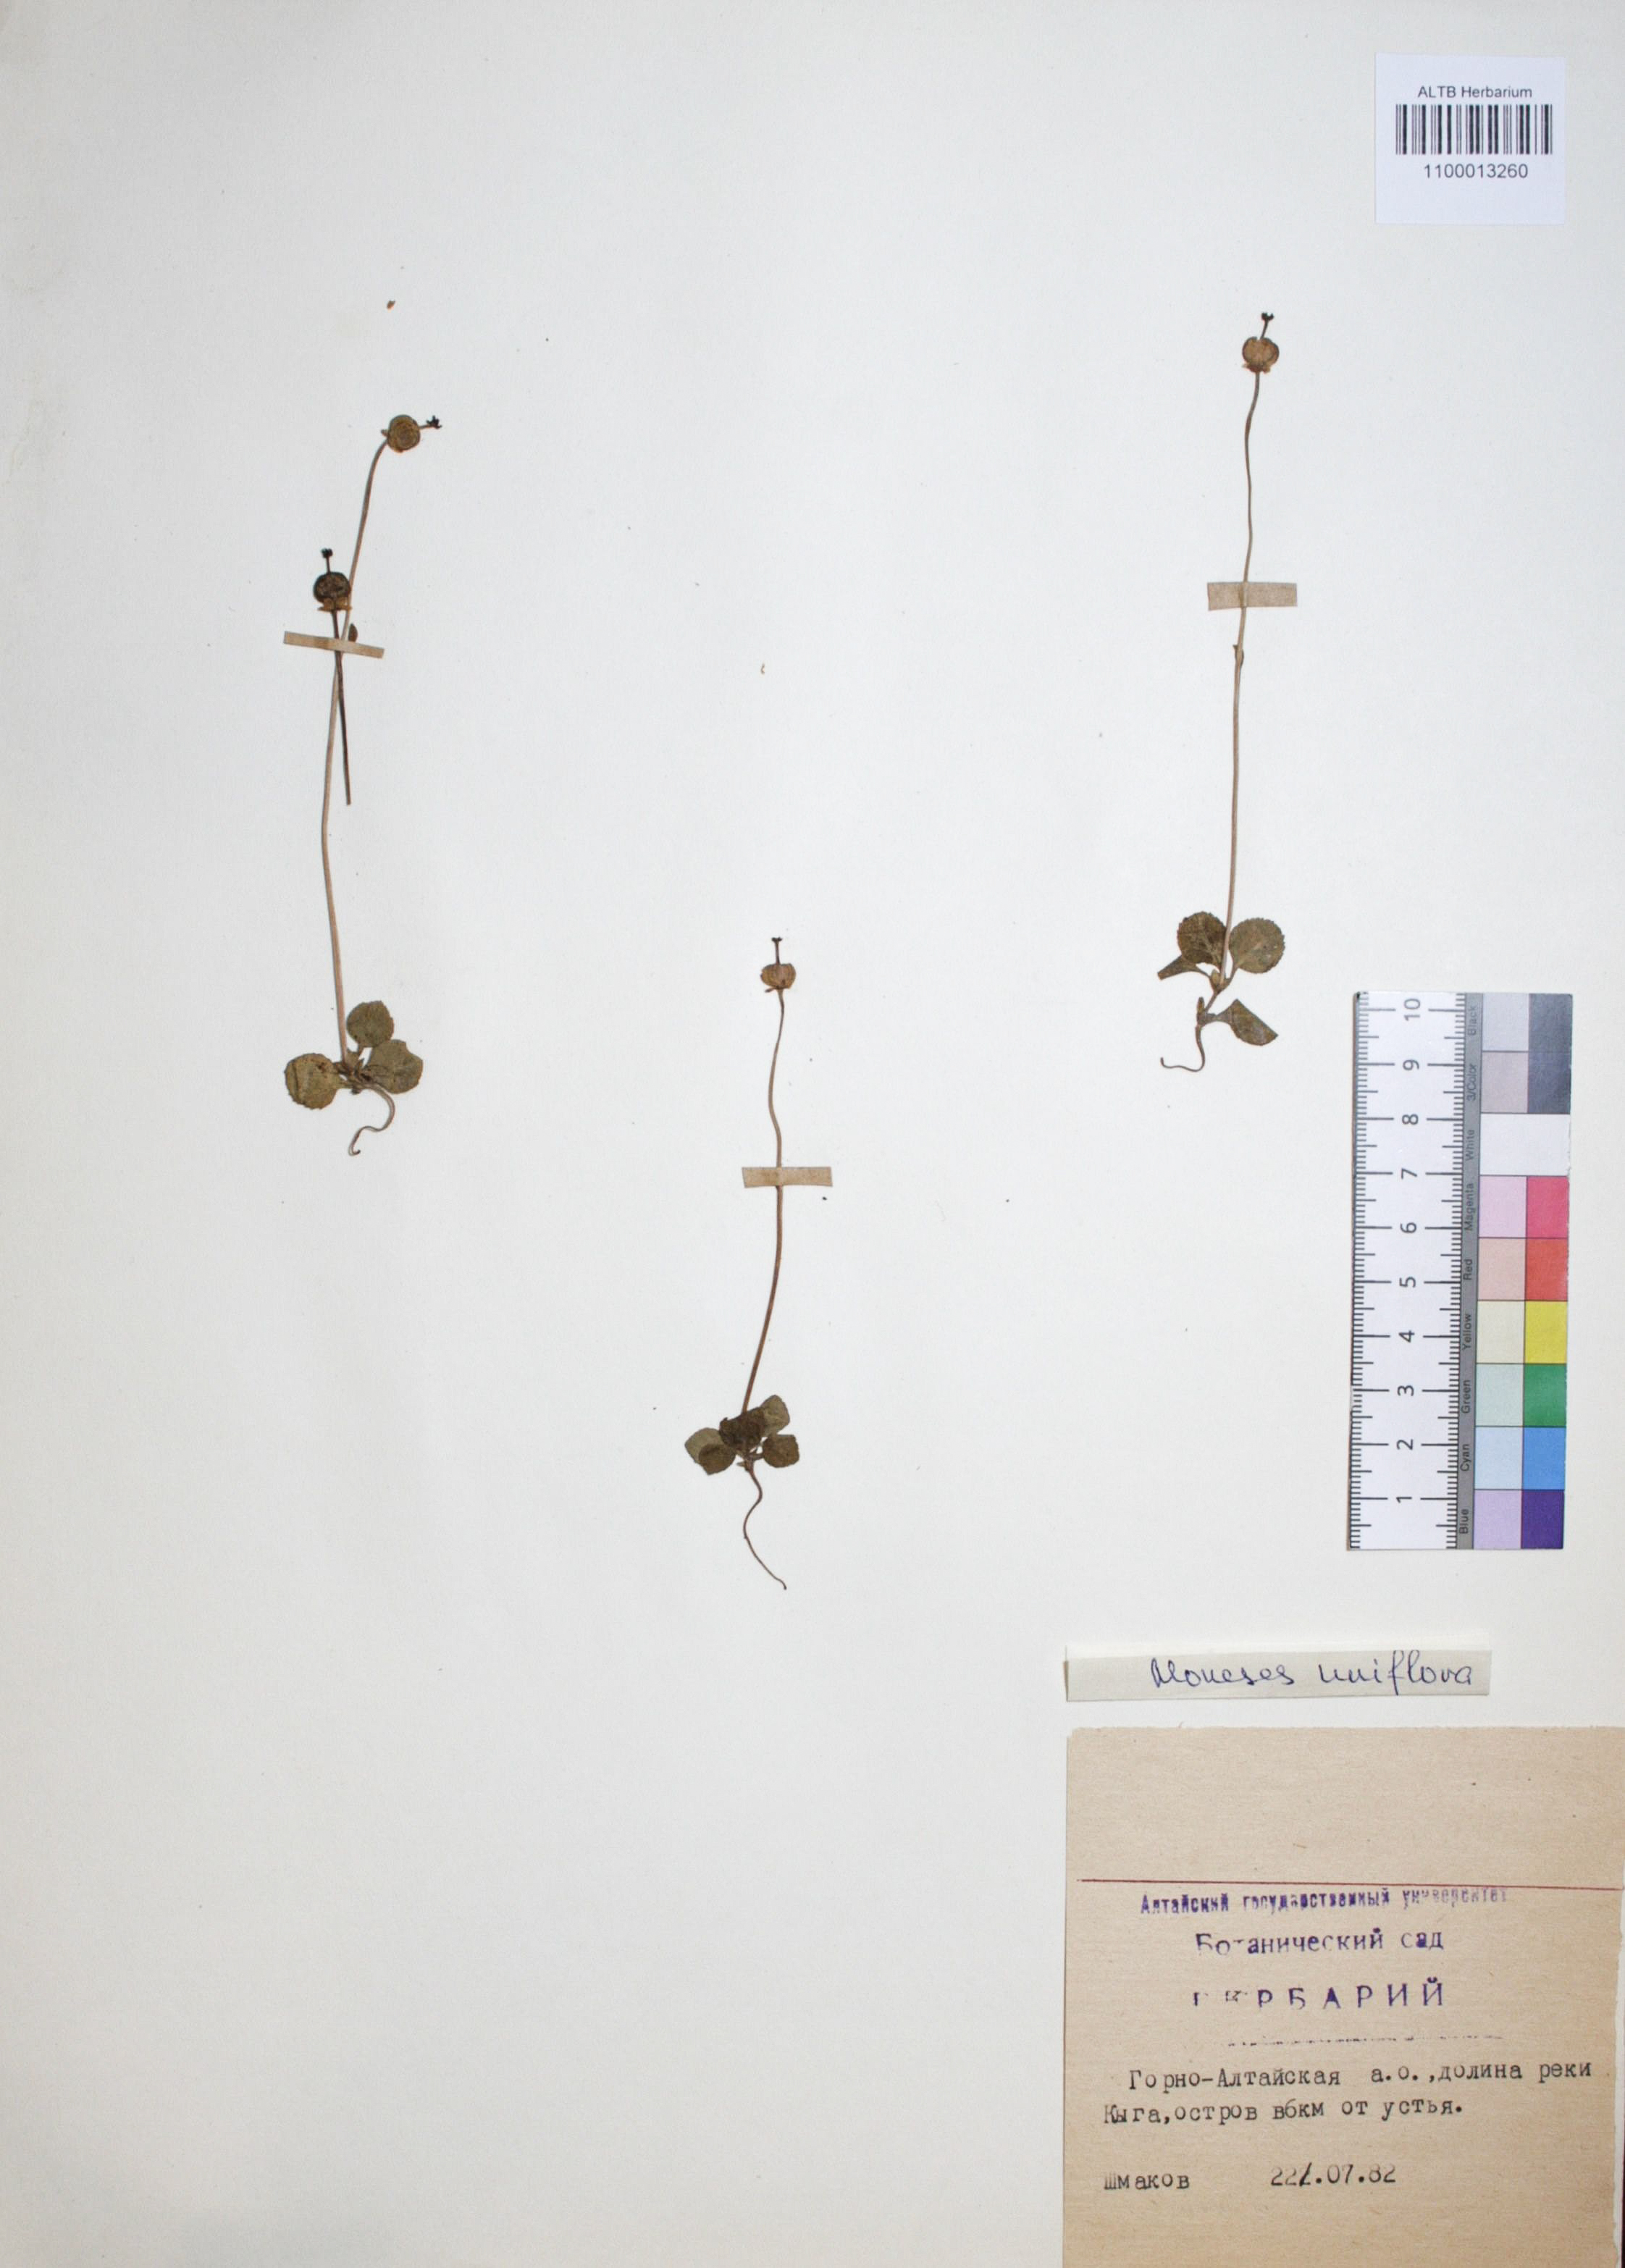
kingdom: Plantae
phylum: Tracheophyta
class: Magnoliopsida
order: Ericales
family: Ericaceae
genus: Moneses
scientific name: Moneses uniflora
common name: One-flowered wintergreen
